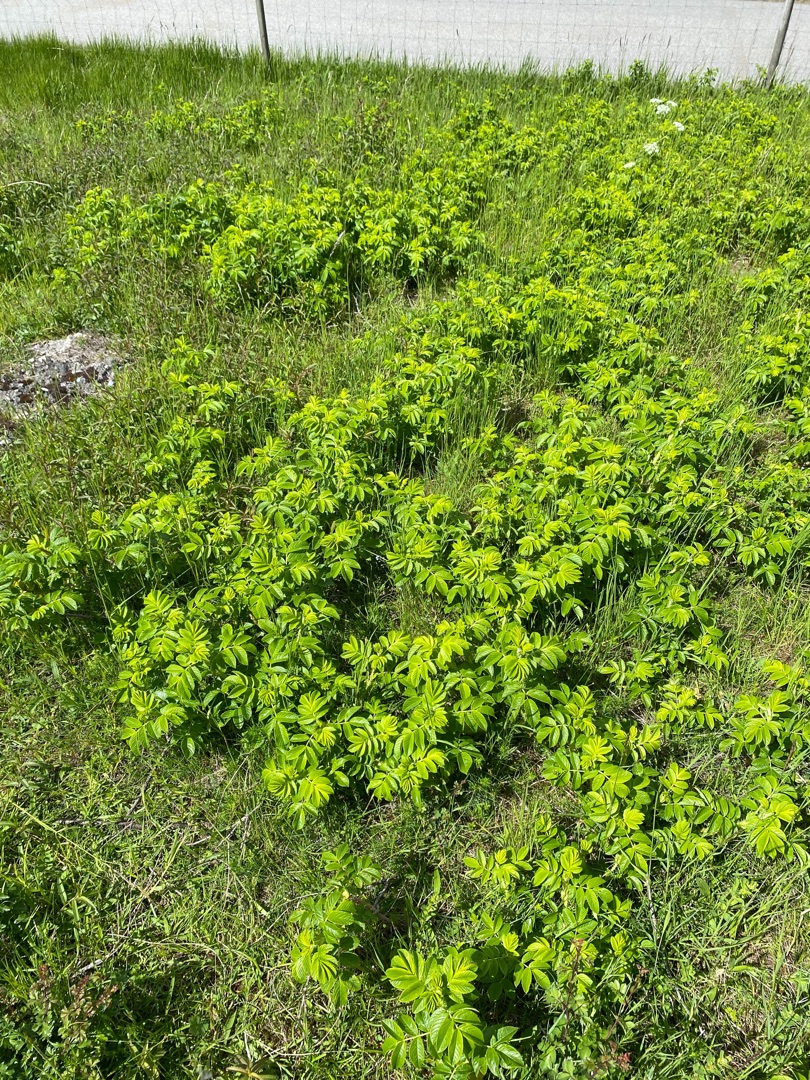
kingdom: Plantae
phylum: Tracheophyta
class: Magnoliopsida
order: Rosales
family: Rosaceae
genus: Rosa
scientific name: Rosa rugosa
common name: Rynket rose
